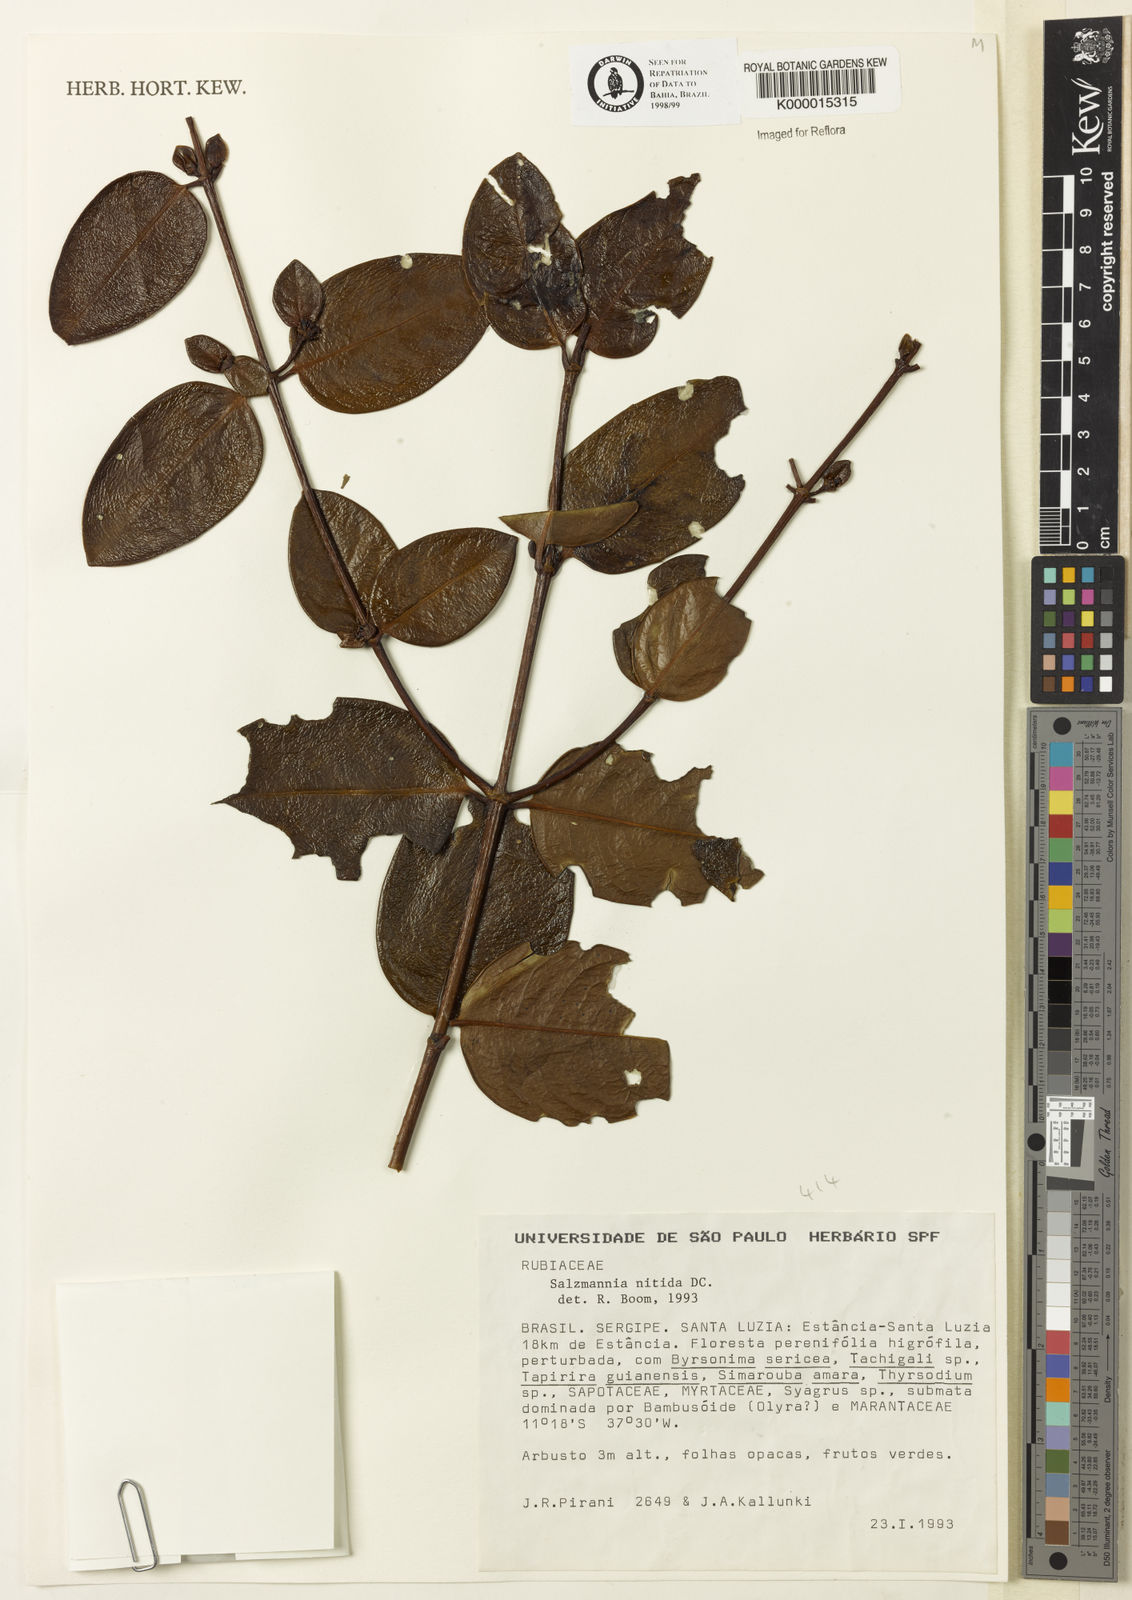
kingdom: Plantae
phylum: Tracheophyta
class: Magnoliopsida
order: Gentianales
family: Rubiaceae
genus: Salzmannia
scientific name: Salzmannia nitida
